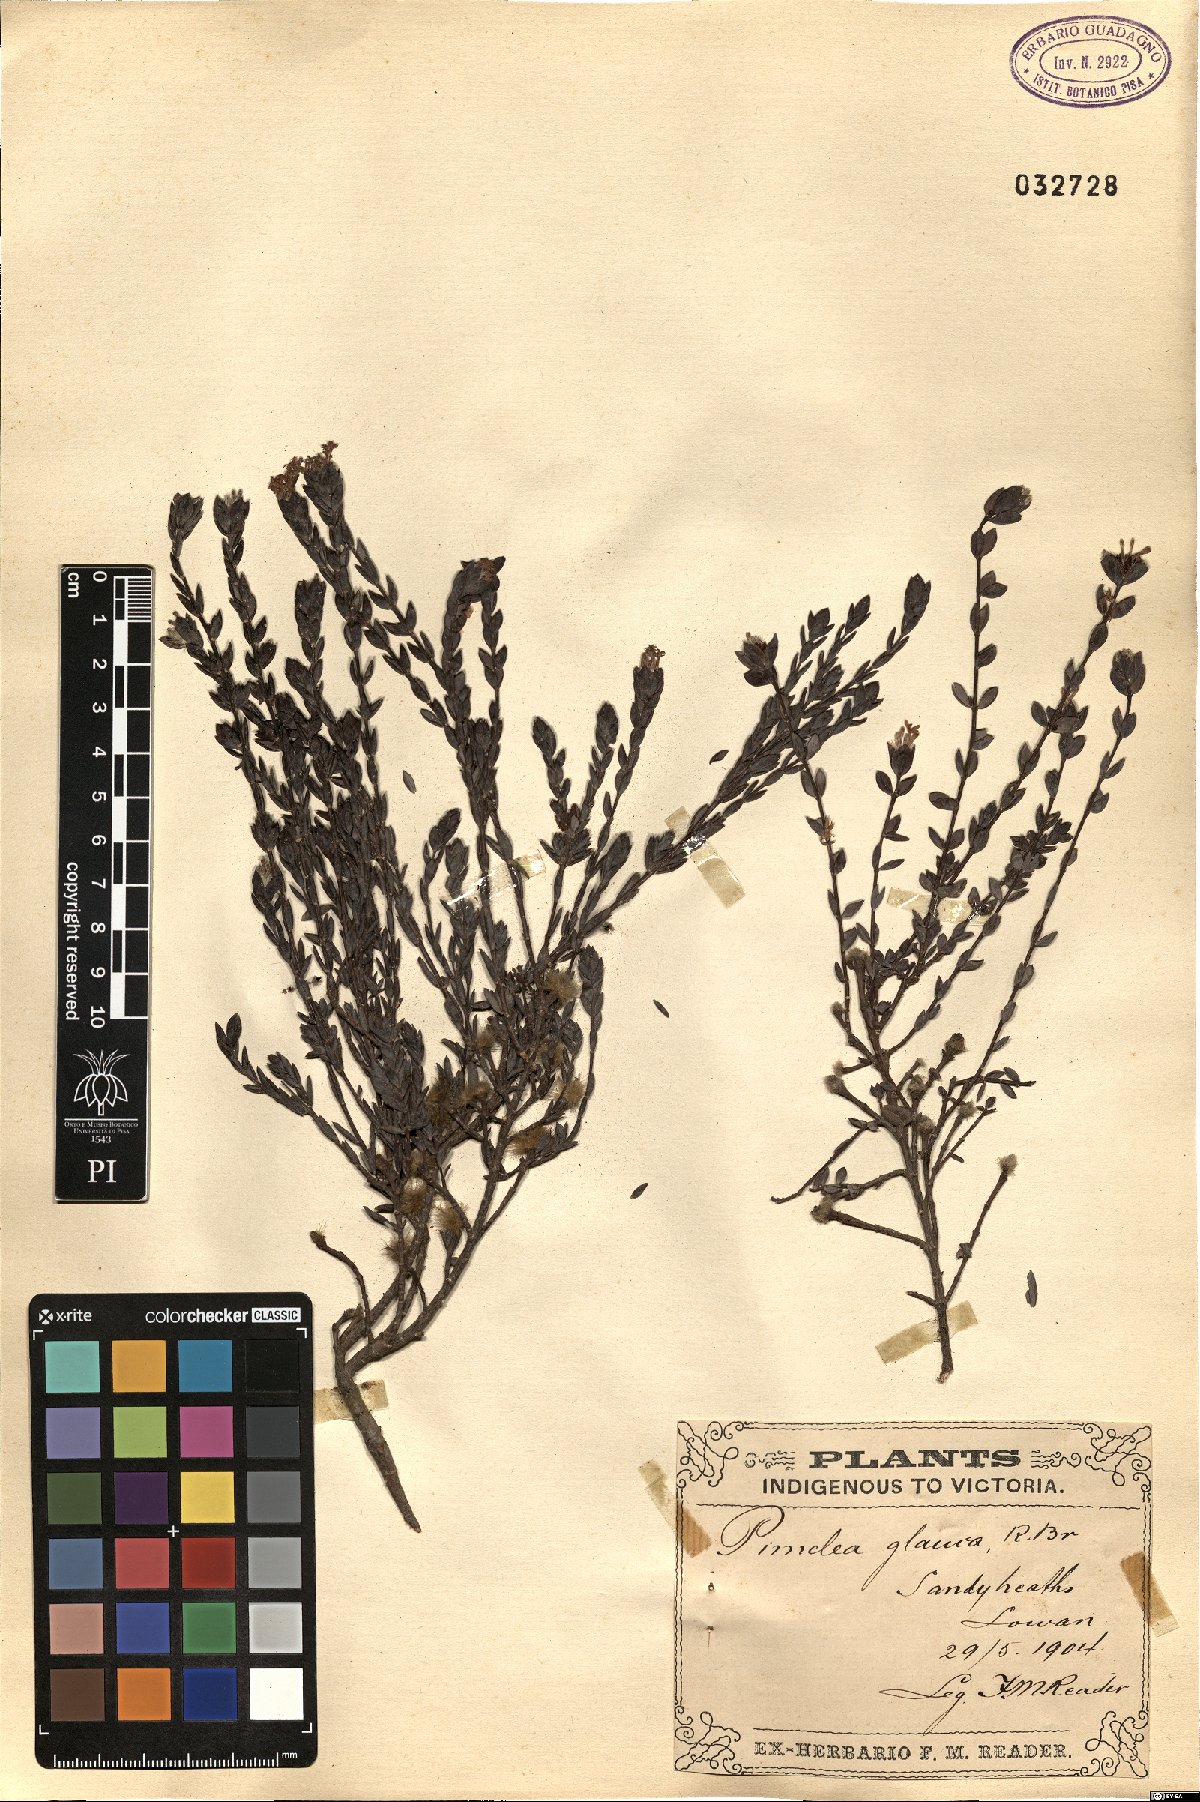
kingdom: Plantae
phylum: Tracheophyta
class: Magnoliopsida
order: Malvales
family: Thymelaeaceae
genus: Pimelea
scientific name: Pimelea glauca
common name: Smooth riceflower
